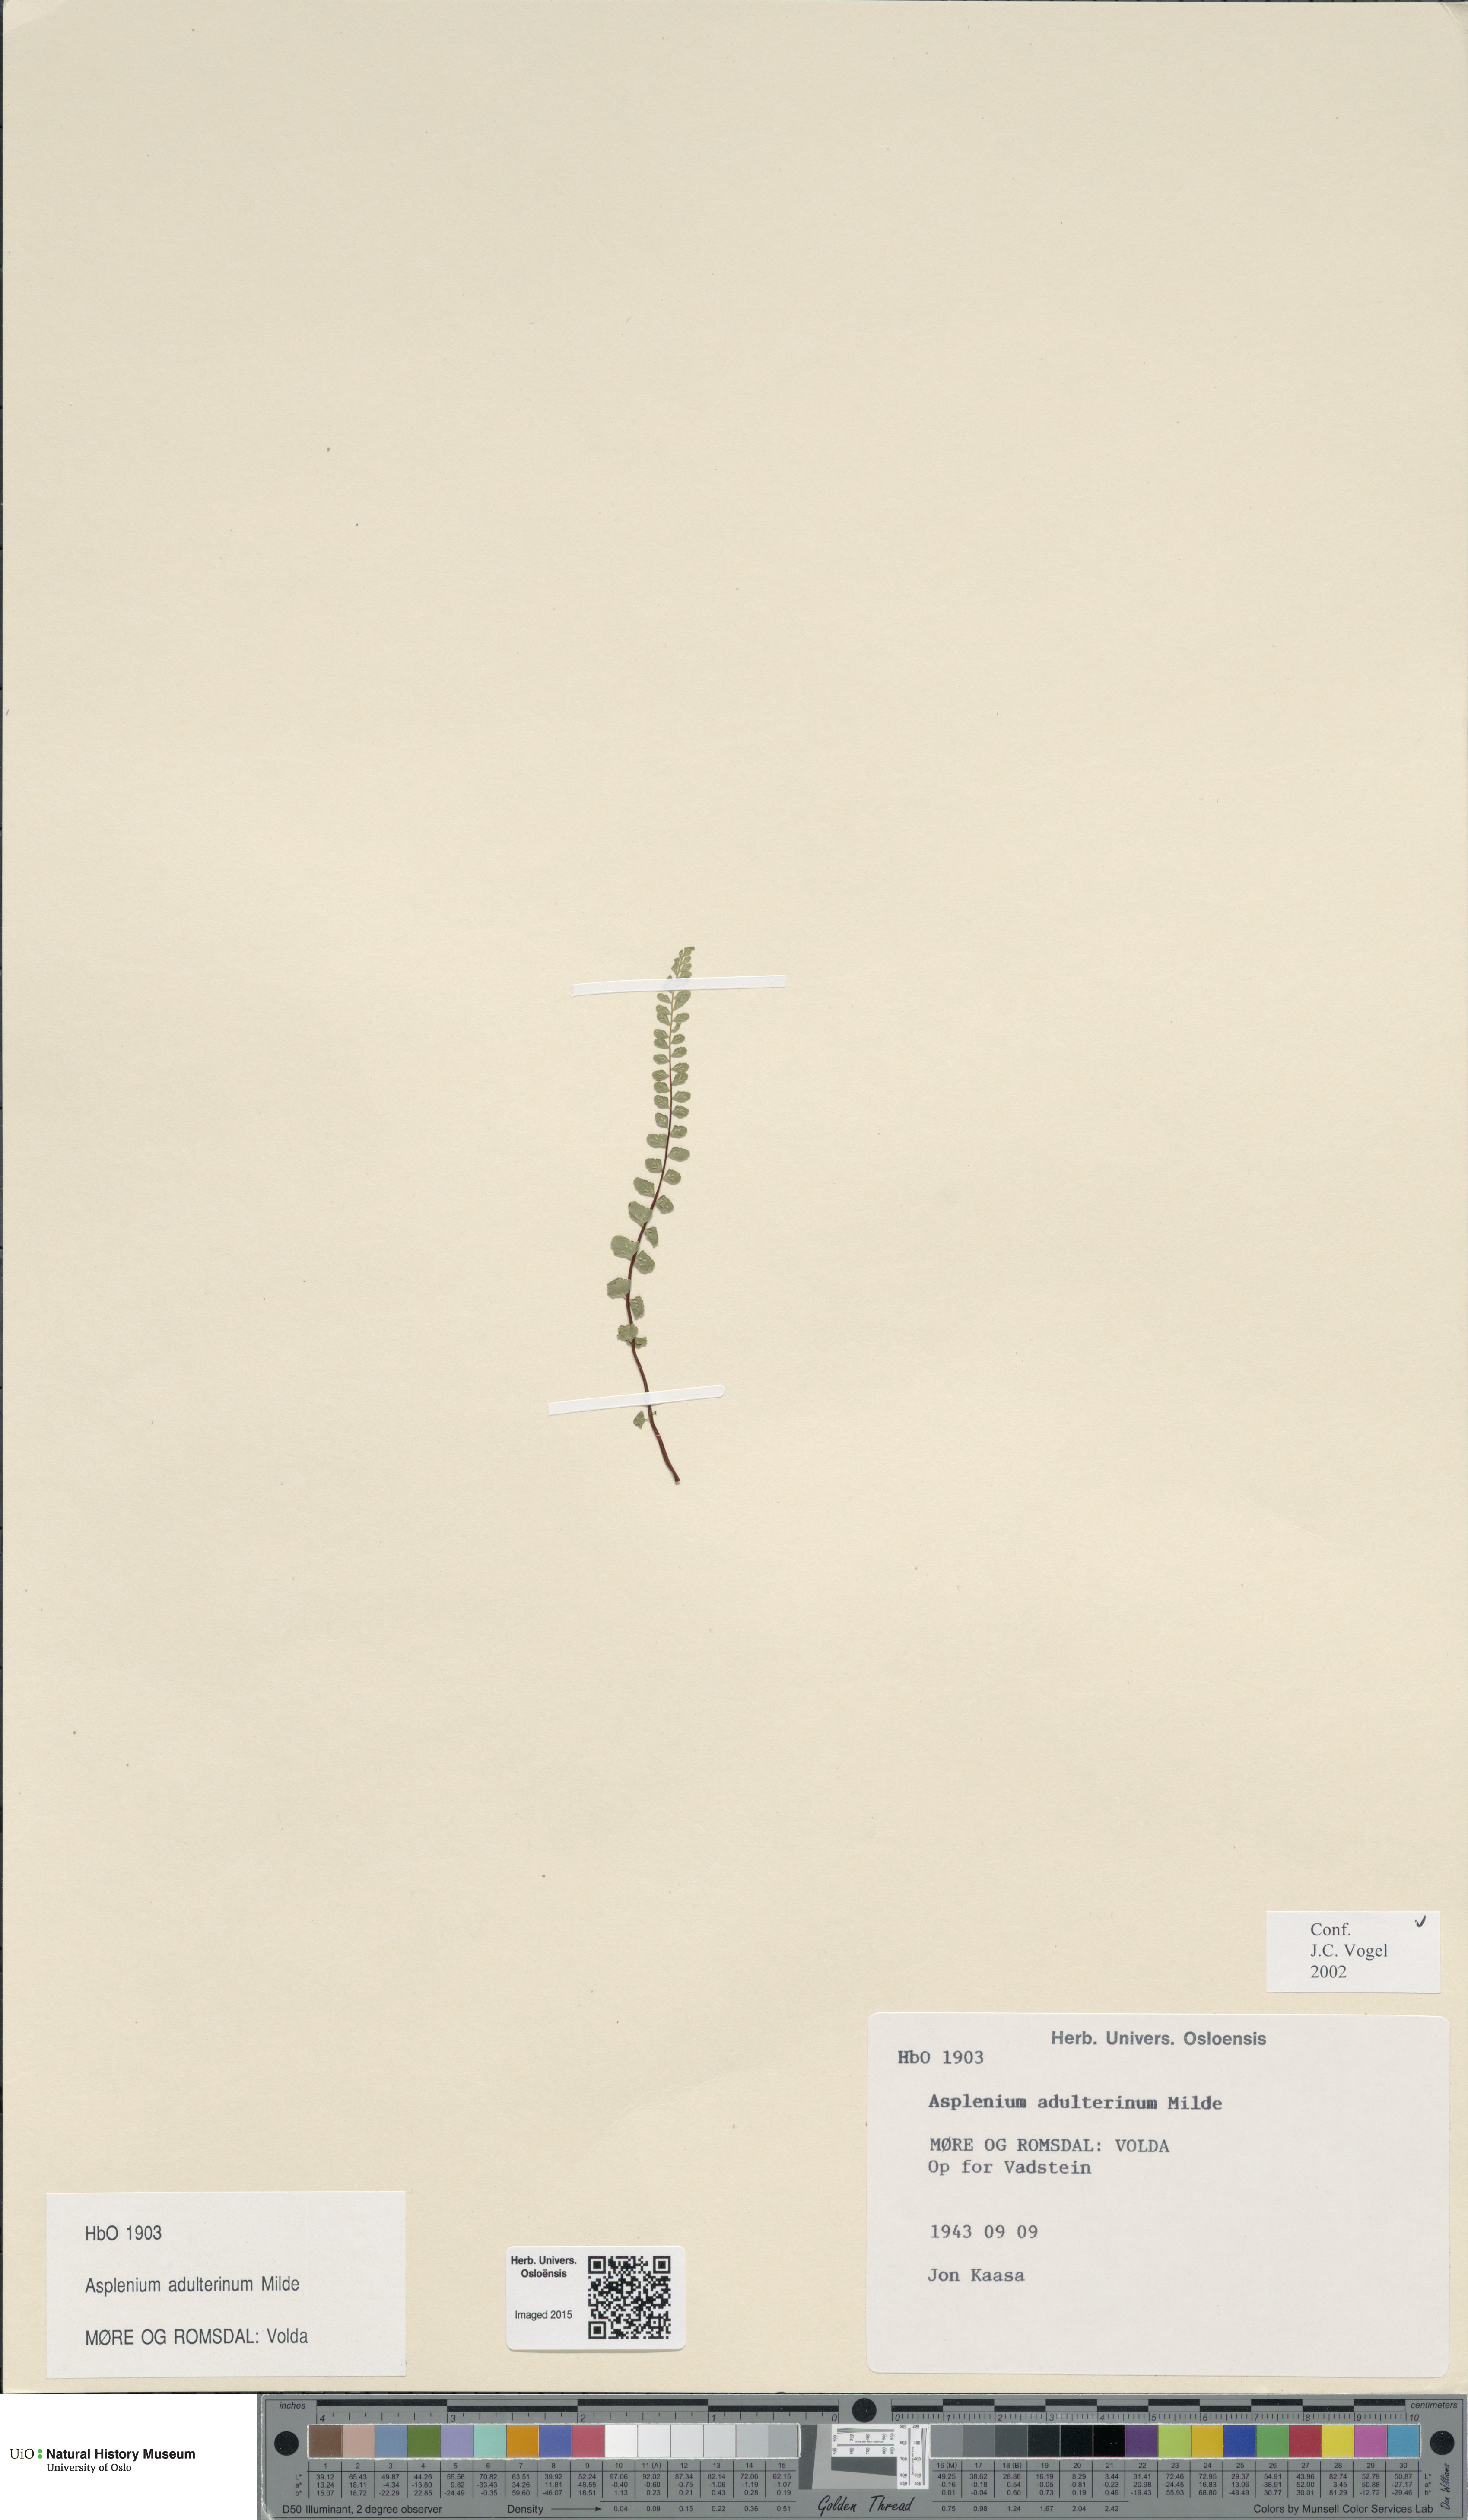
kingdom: Plantae
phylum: Tracheophyta
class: Polypodiopsida
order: Polypodiales
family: Aspleniaceae
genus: Asplenium
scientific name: Asplenium adulterinum
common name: Adulterated spleenwort
